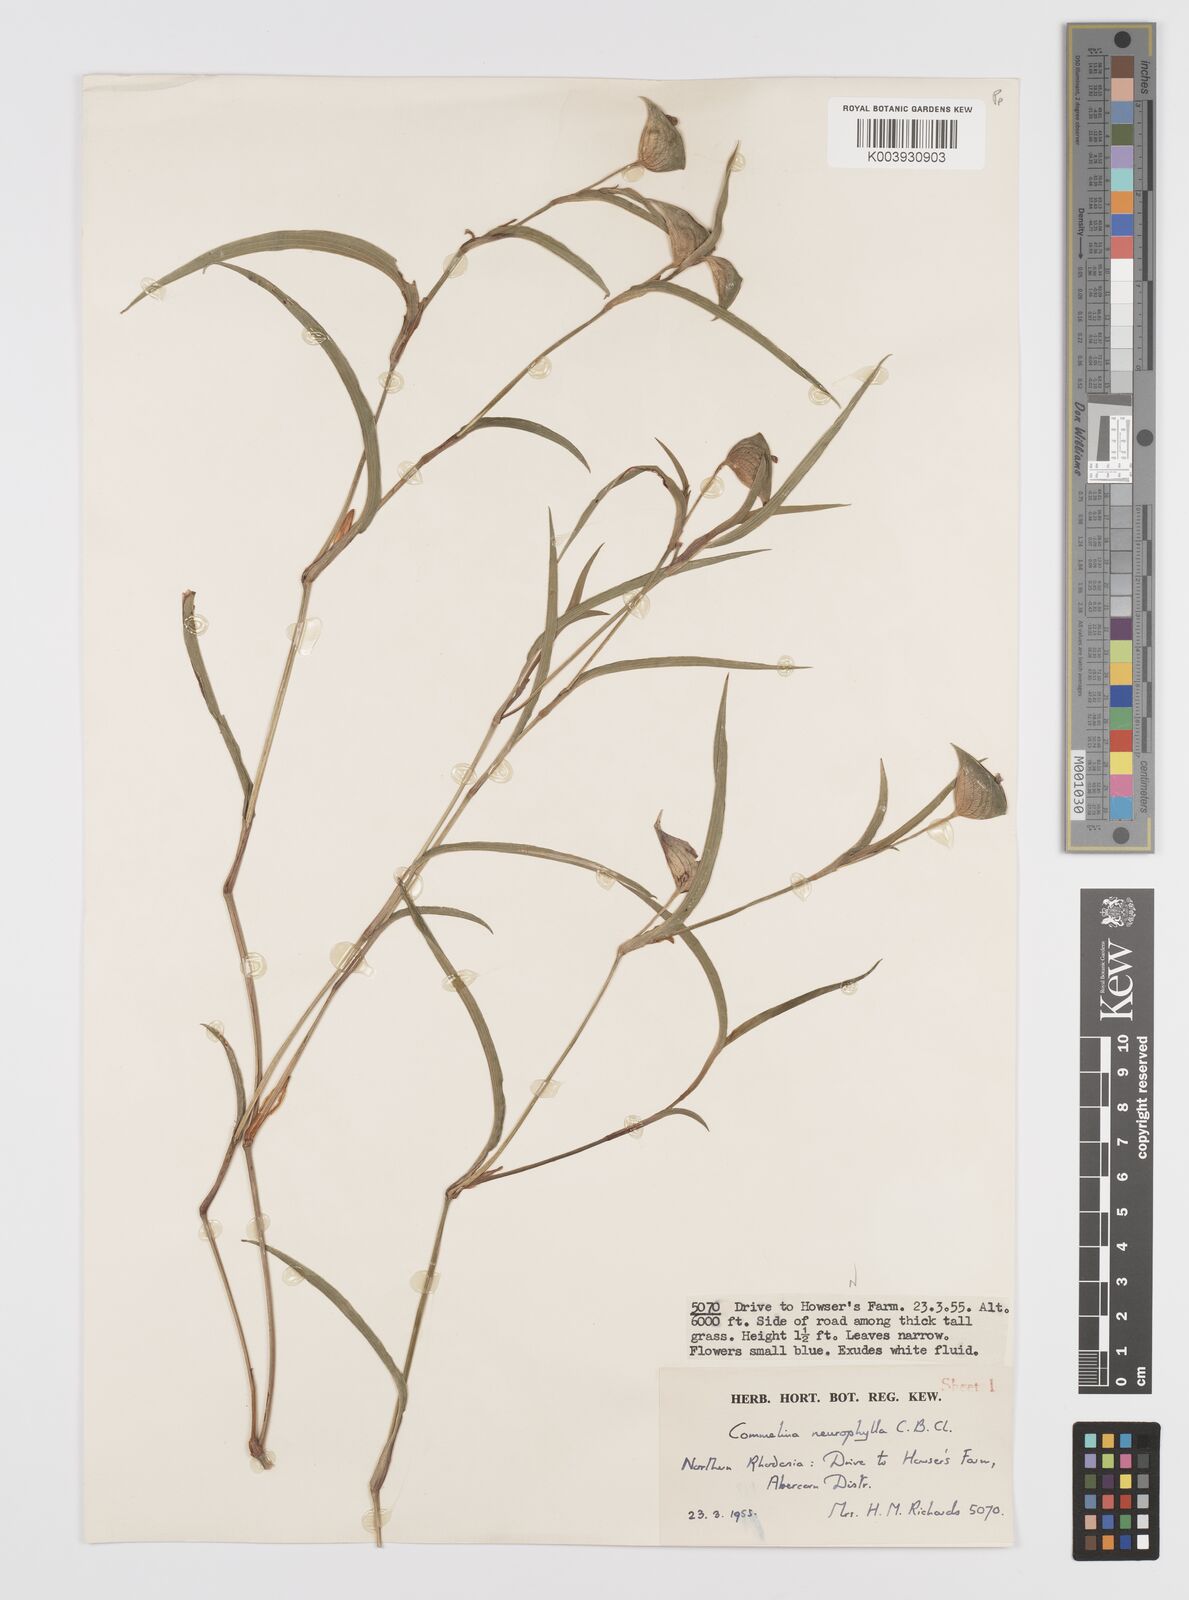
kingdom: Plantae
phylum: Tracheophyta
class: Liliopsida
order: Commelinales
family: Commelinaceae
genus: Commelina
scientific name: Commelina neurophylla
